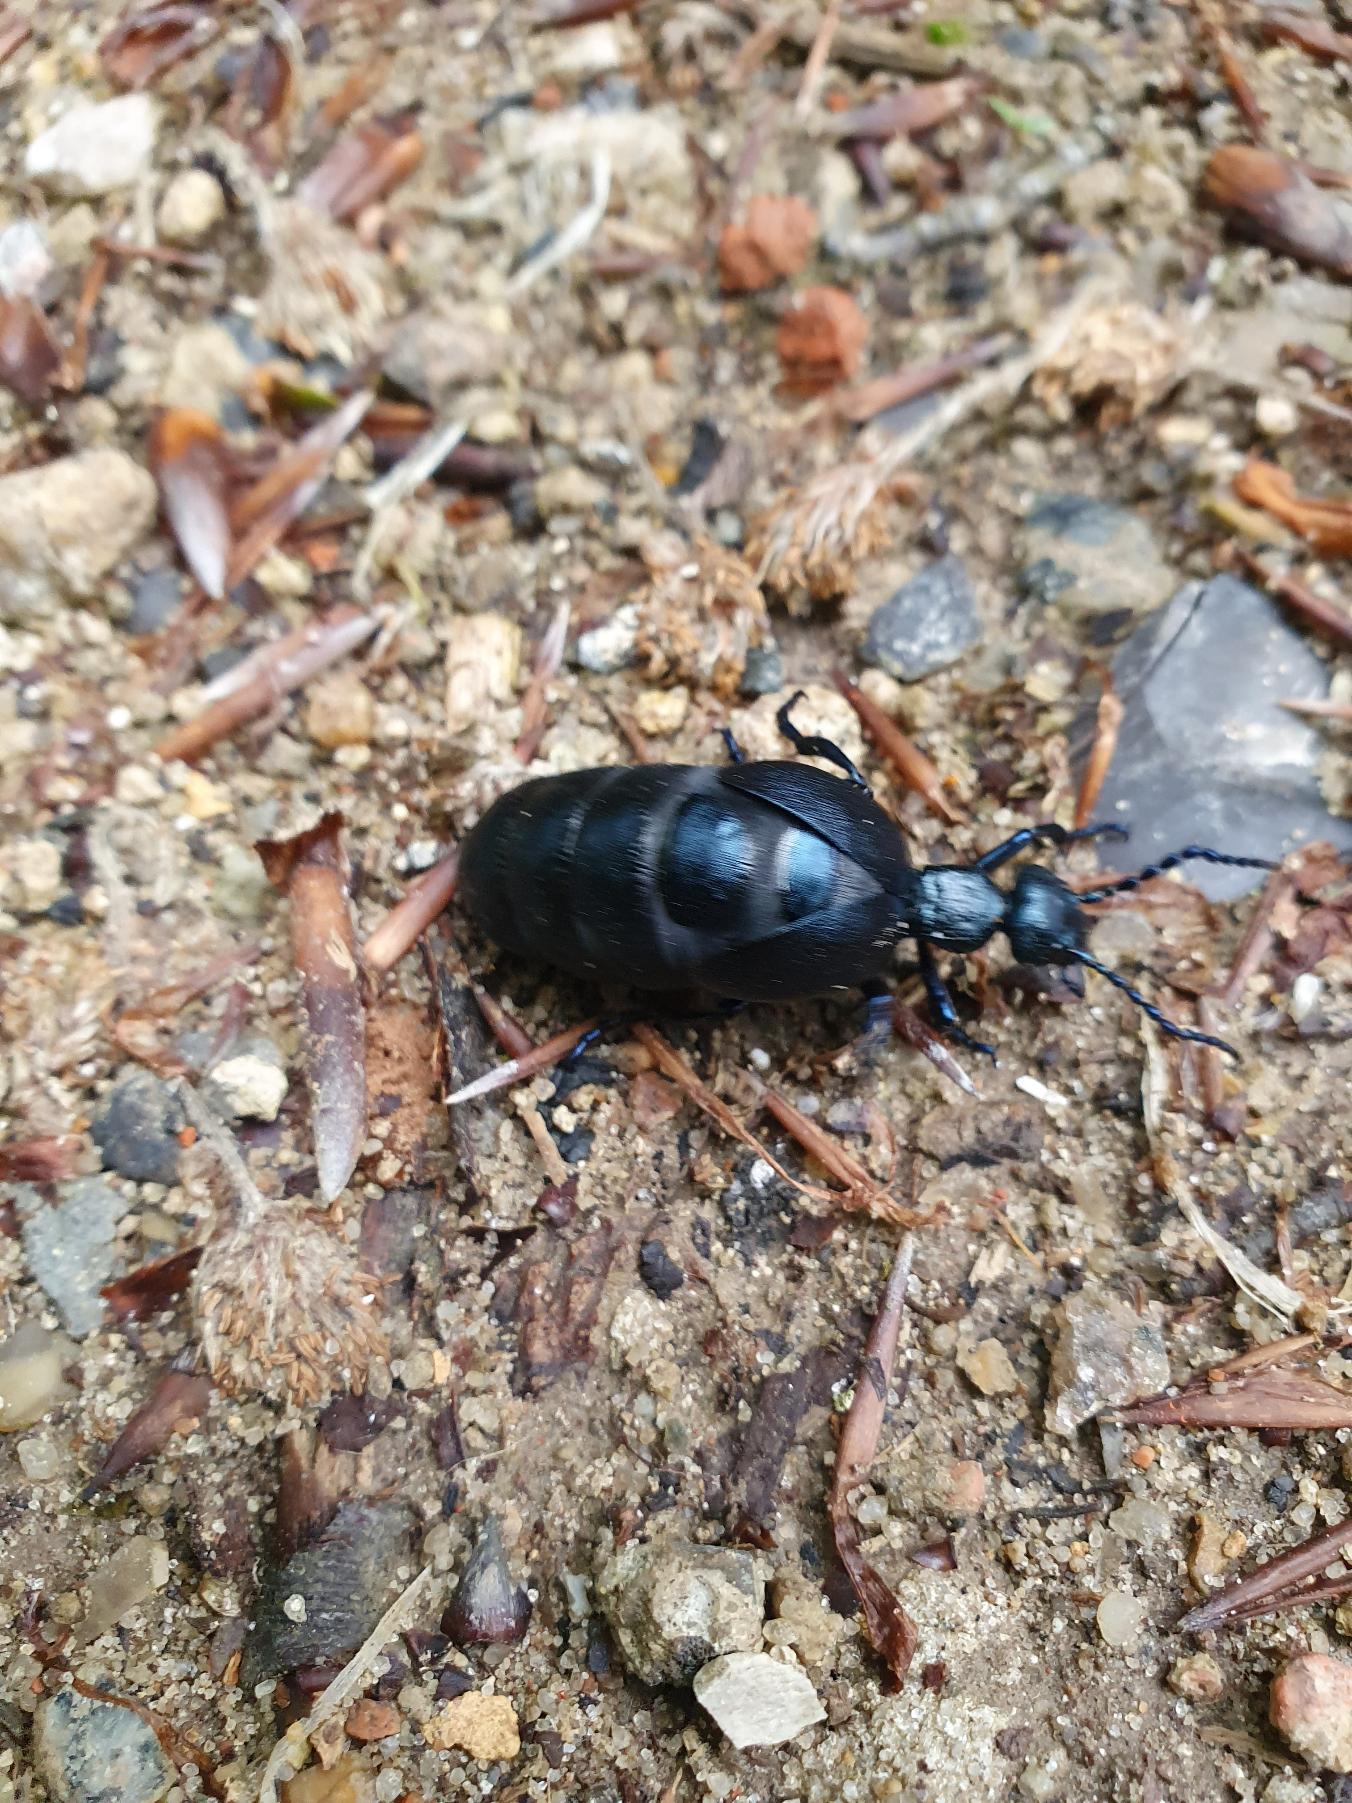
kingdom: Animalia
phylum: Arthropoda
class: Insecta
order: Coleoptera
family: Meloidae
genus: Meloe
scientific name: Meloe violaceus
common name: Blå oliebille
